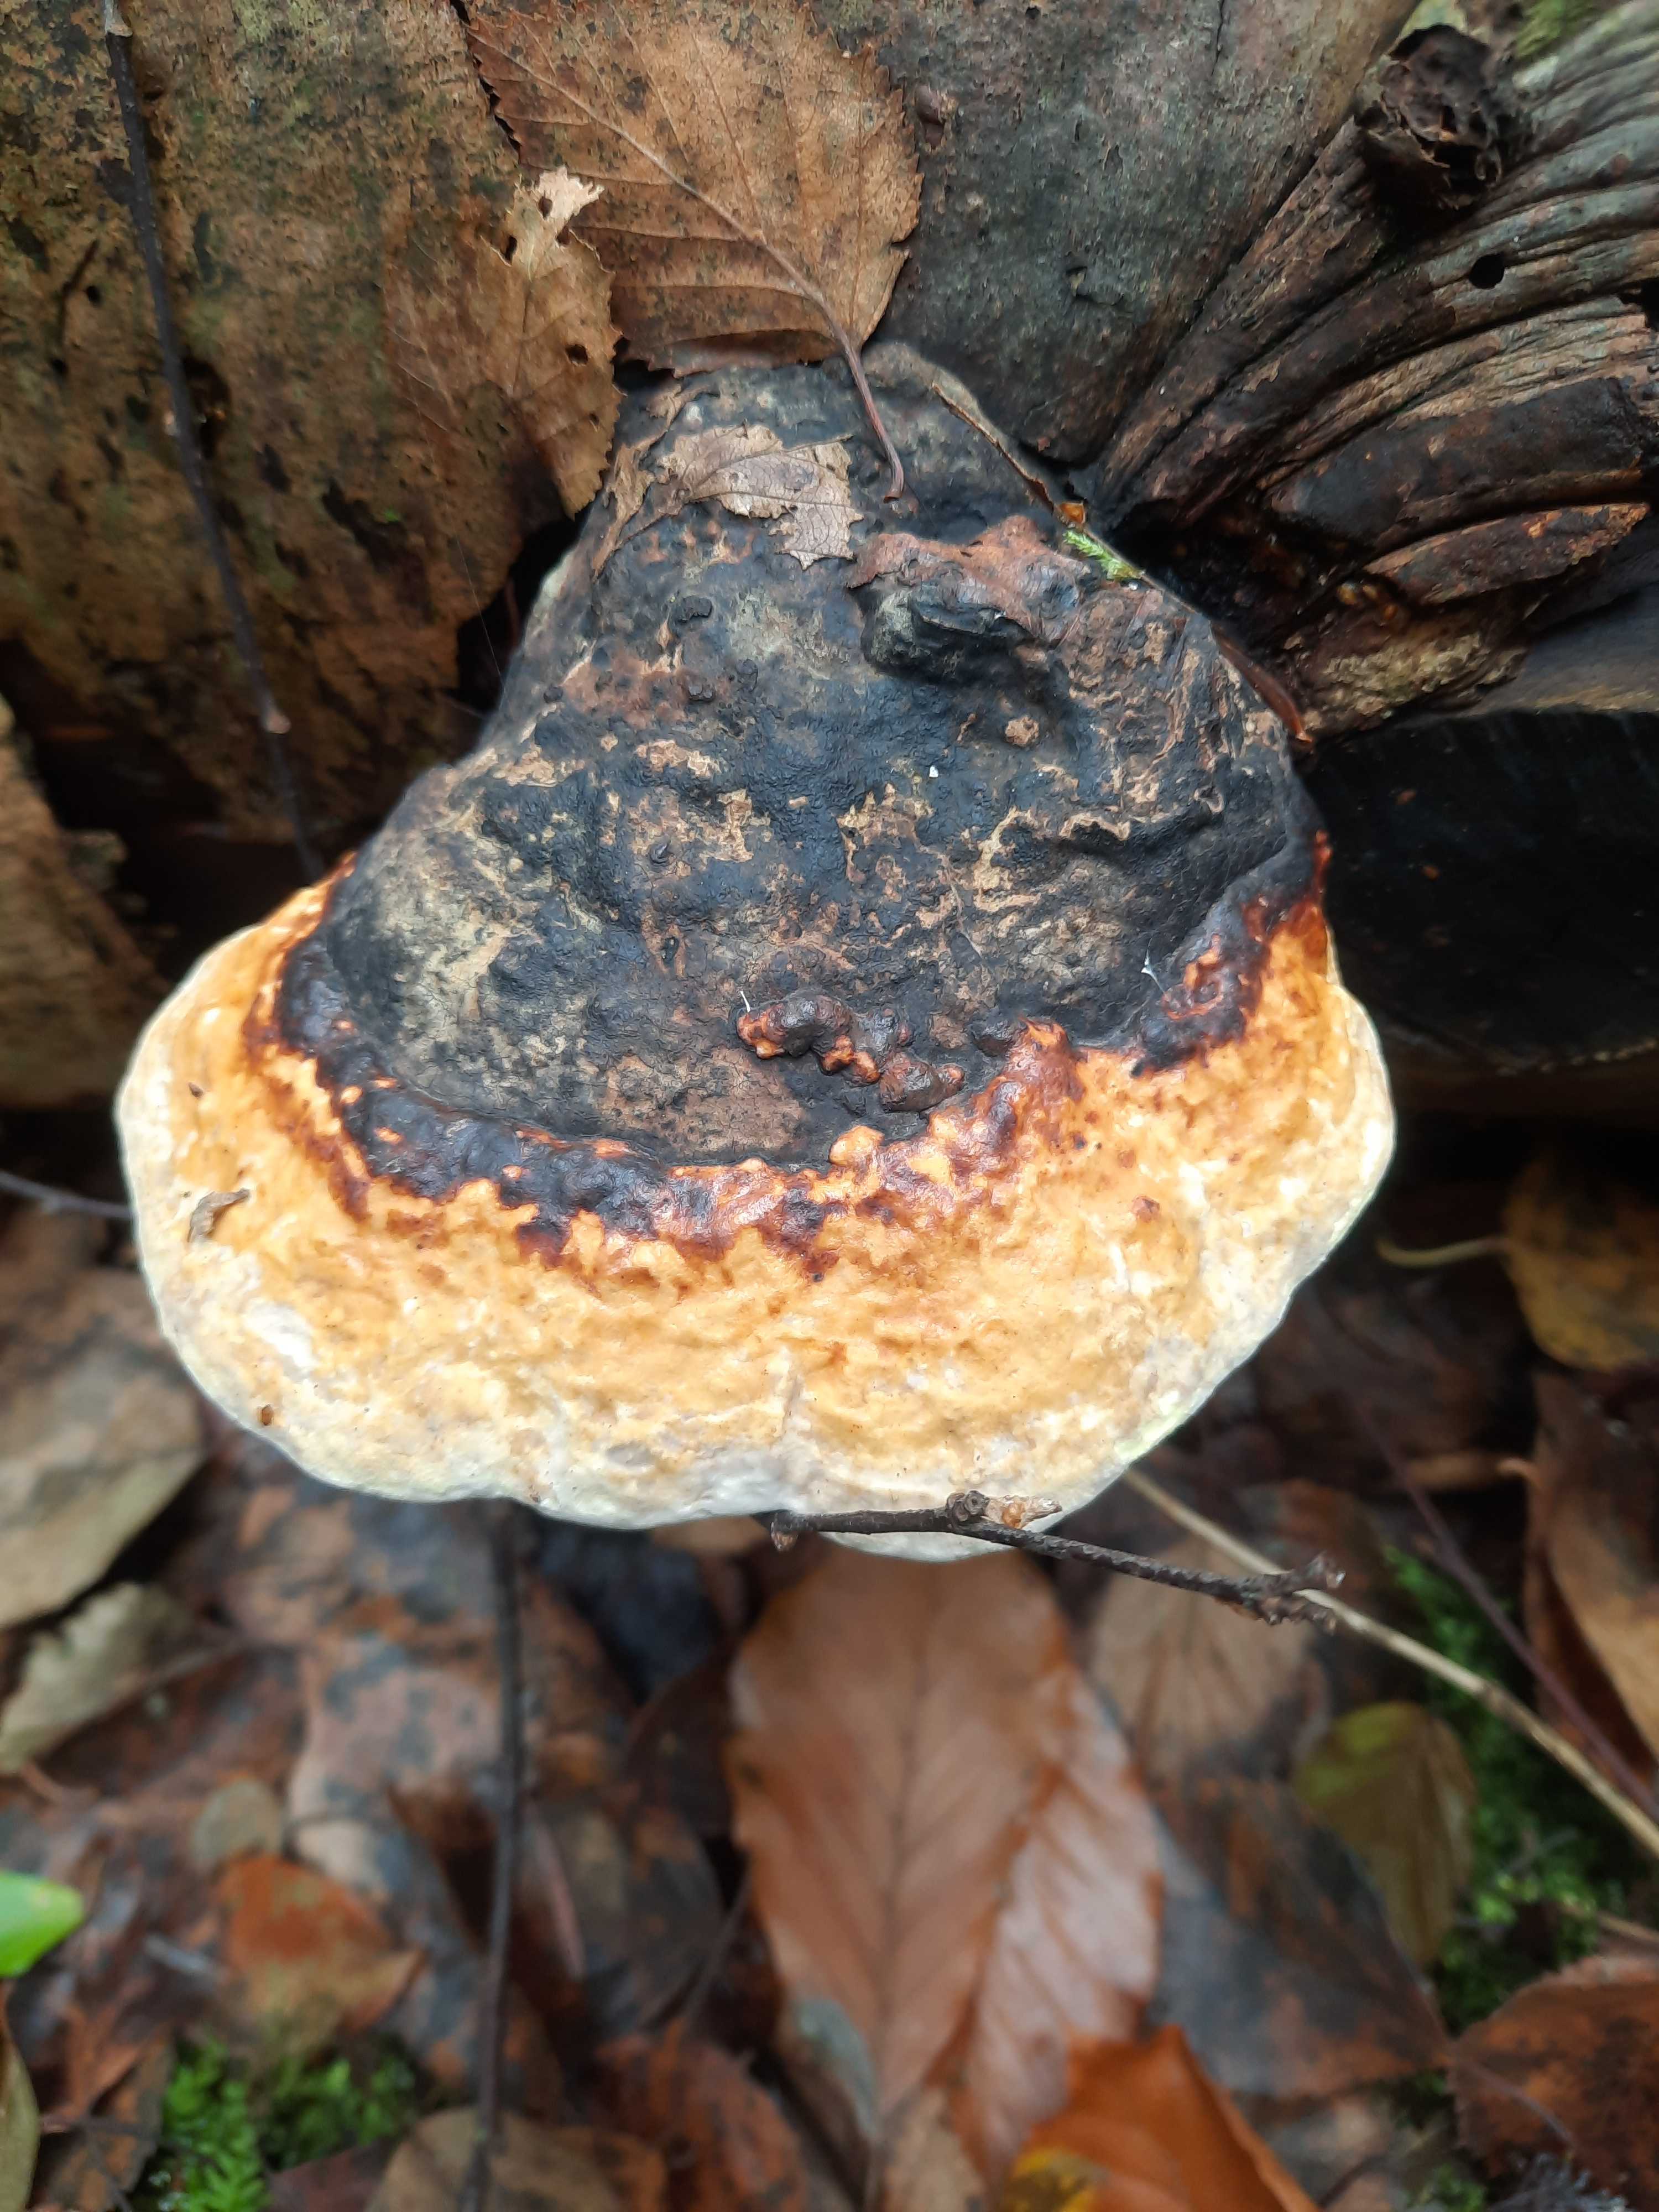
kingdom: Fungi
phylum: Basidiomycota
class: Agaricomycetes
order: Polyporales
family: Fomitopsidaceae
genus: Fomitopsis
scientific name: Fomitopsis pinicola
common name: randbæltet hovporesvamp
